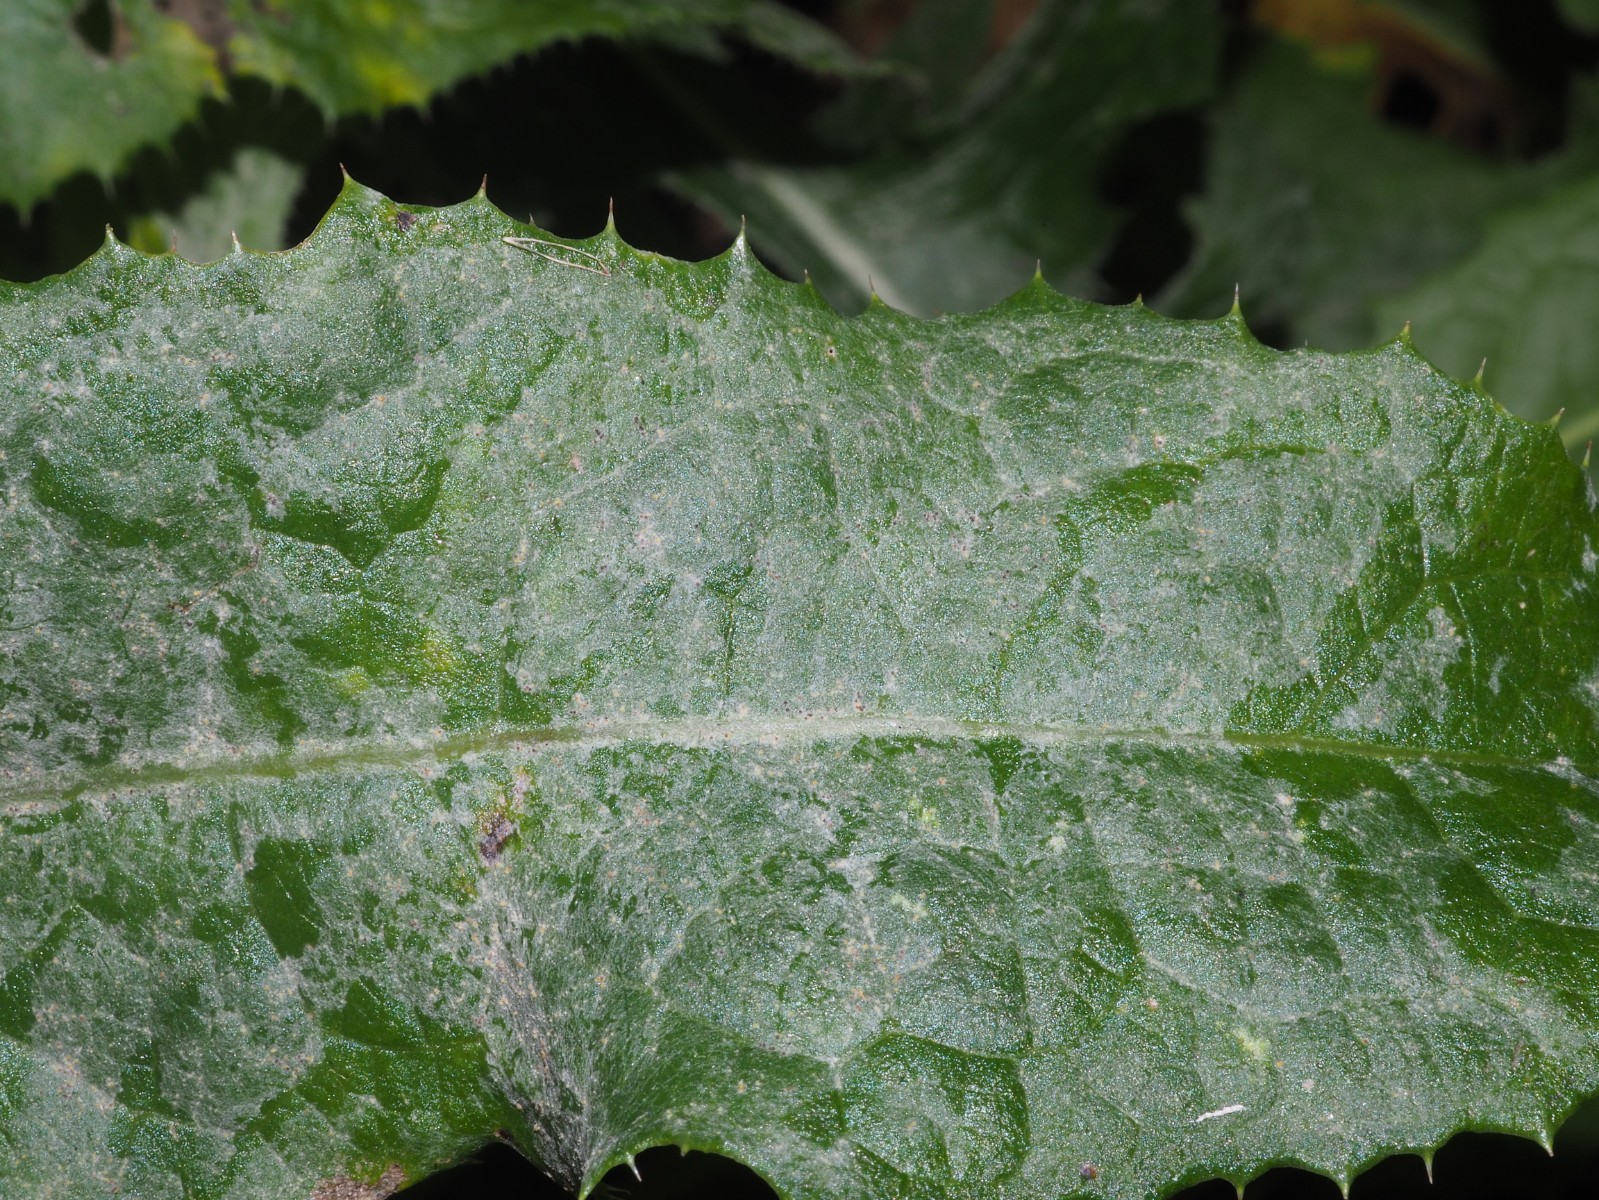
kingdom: Fungi
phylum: Ascomycota
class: Leotiomycetes
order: Helotiales
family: Erysiphaceae
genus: Golovinomyces
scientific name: Golovinomyces sonchicola
